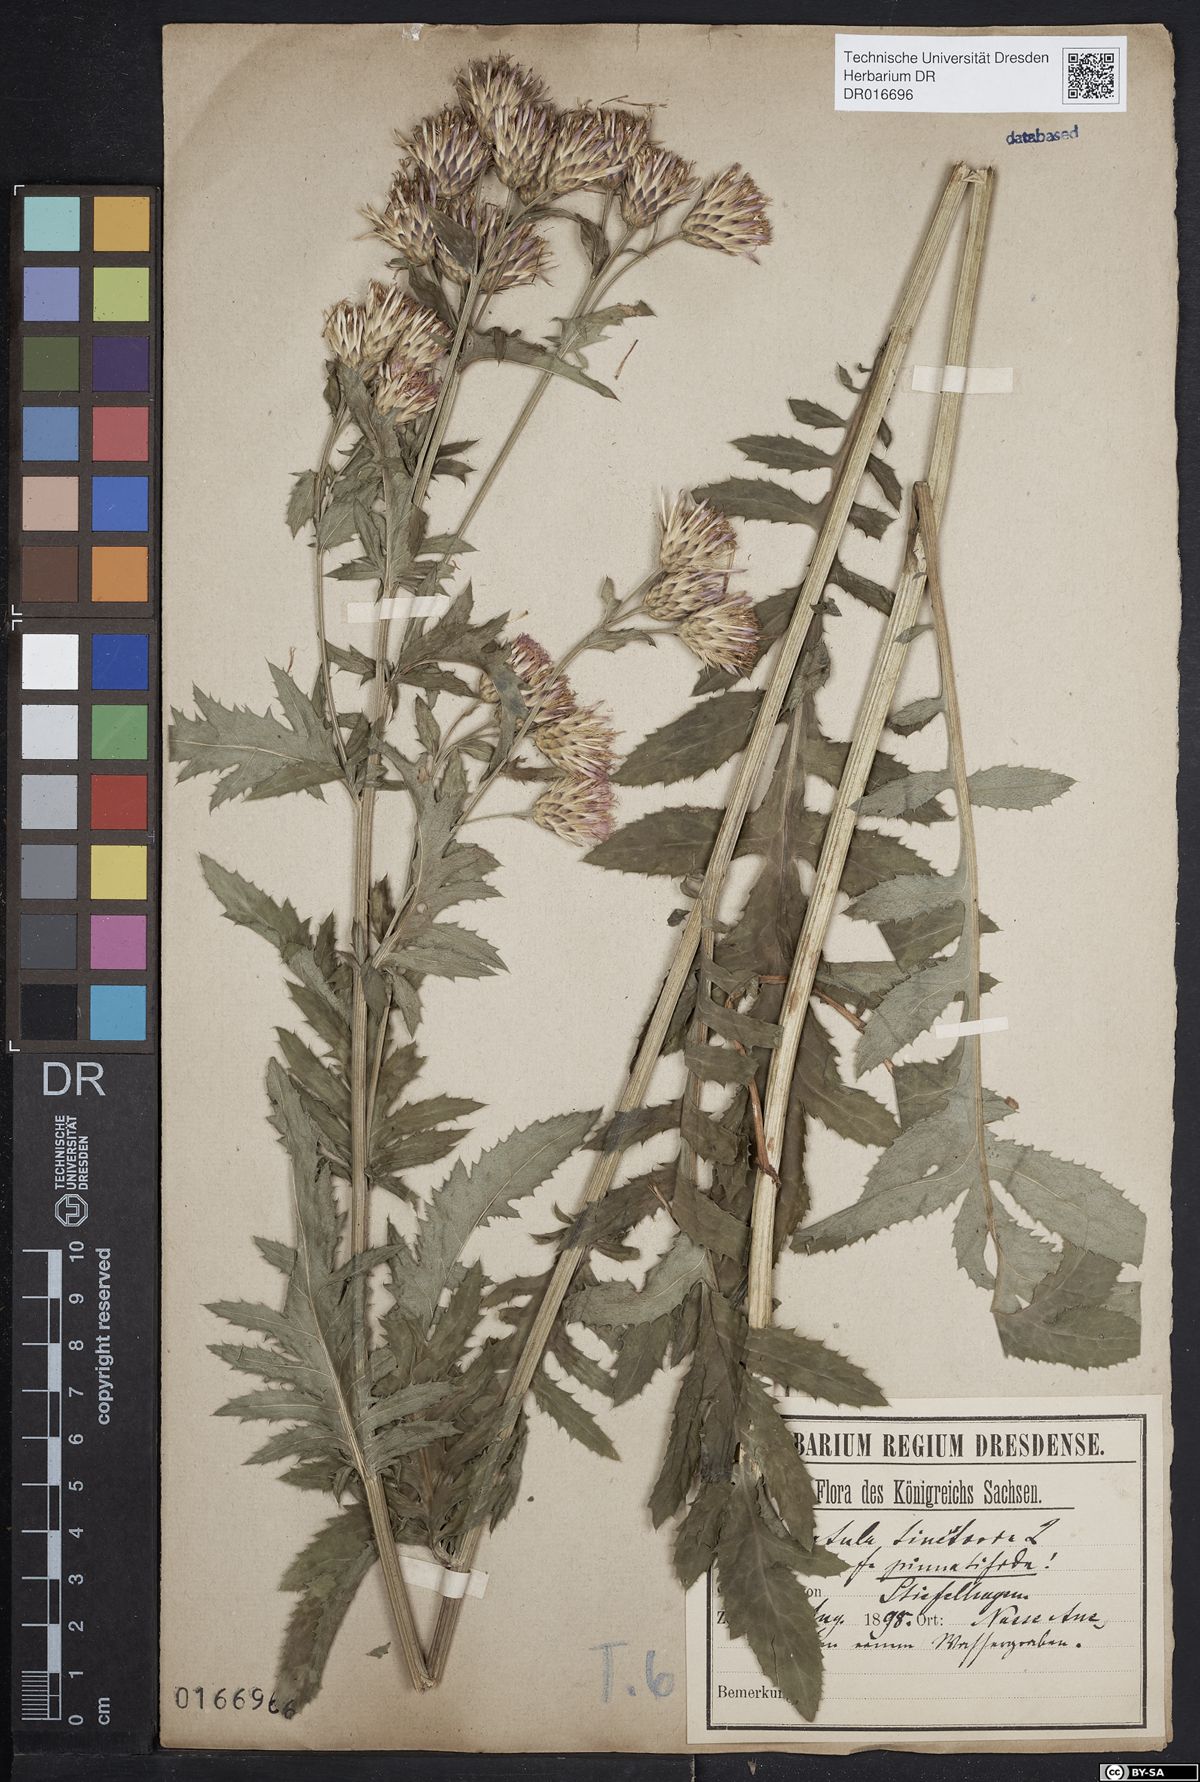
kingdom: Plantae
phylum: Tracheophyta
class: Magnoliopsida
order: Asterales
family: Asteraceae
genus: Serratula
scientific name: Serratula tinctoria
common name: Saw-wort
